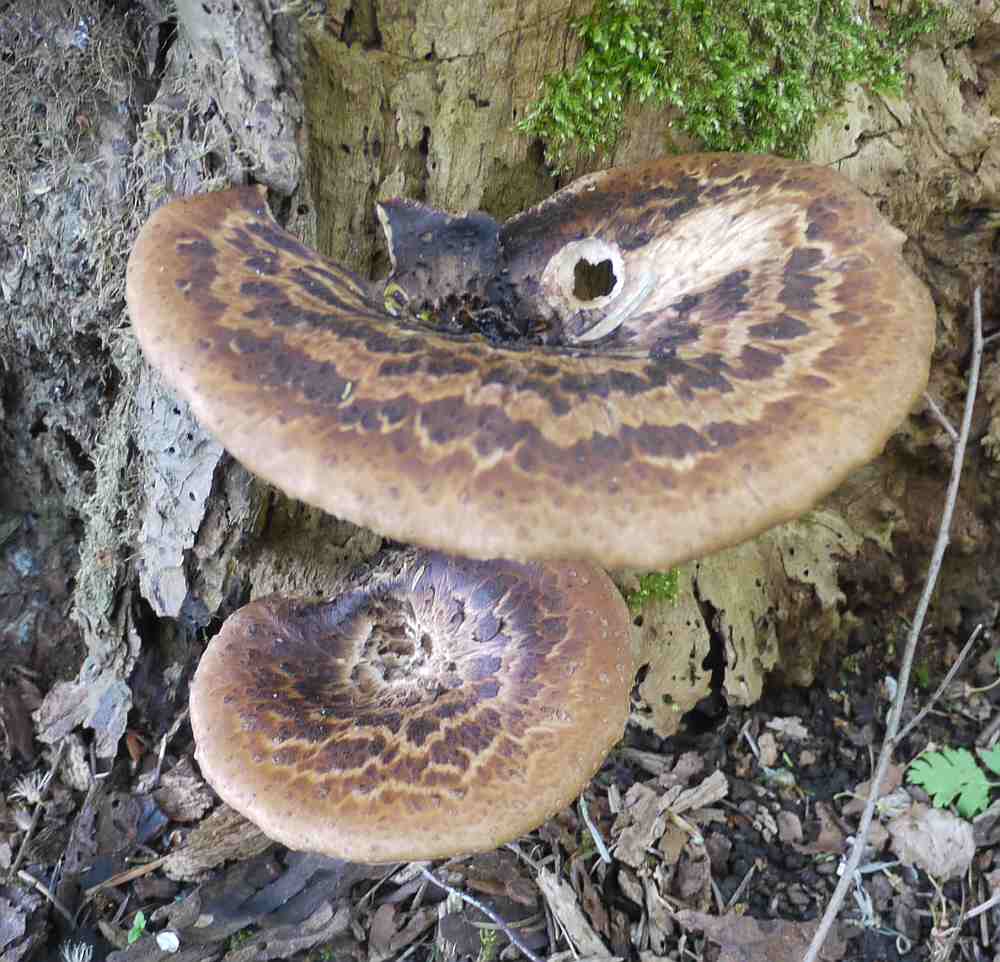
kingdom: Fungi
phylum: Basidiomycota
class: Agaricomycetes
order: Polyporales
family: Polyporaceae
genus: Cerioporus
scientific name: Cerioporus squamosus
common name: skællet stilkporesvamp
